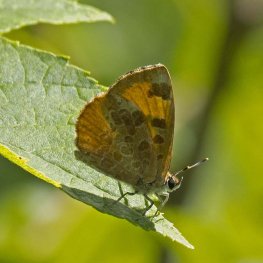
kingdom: Animalia
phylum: Arthropoda
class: Insecta
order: Lepidoptera
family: Lycaenidae
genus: Feniseca
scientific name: Feniseca tarquinius
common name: Harvester
